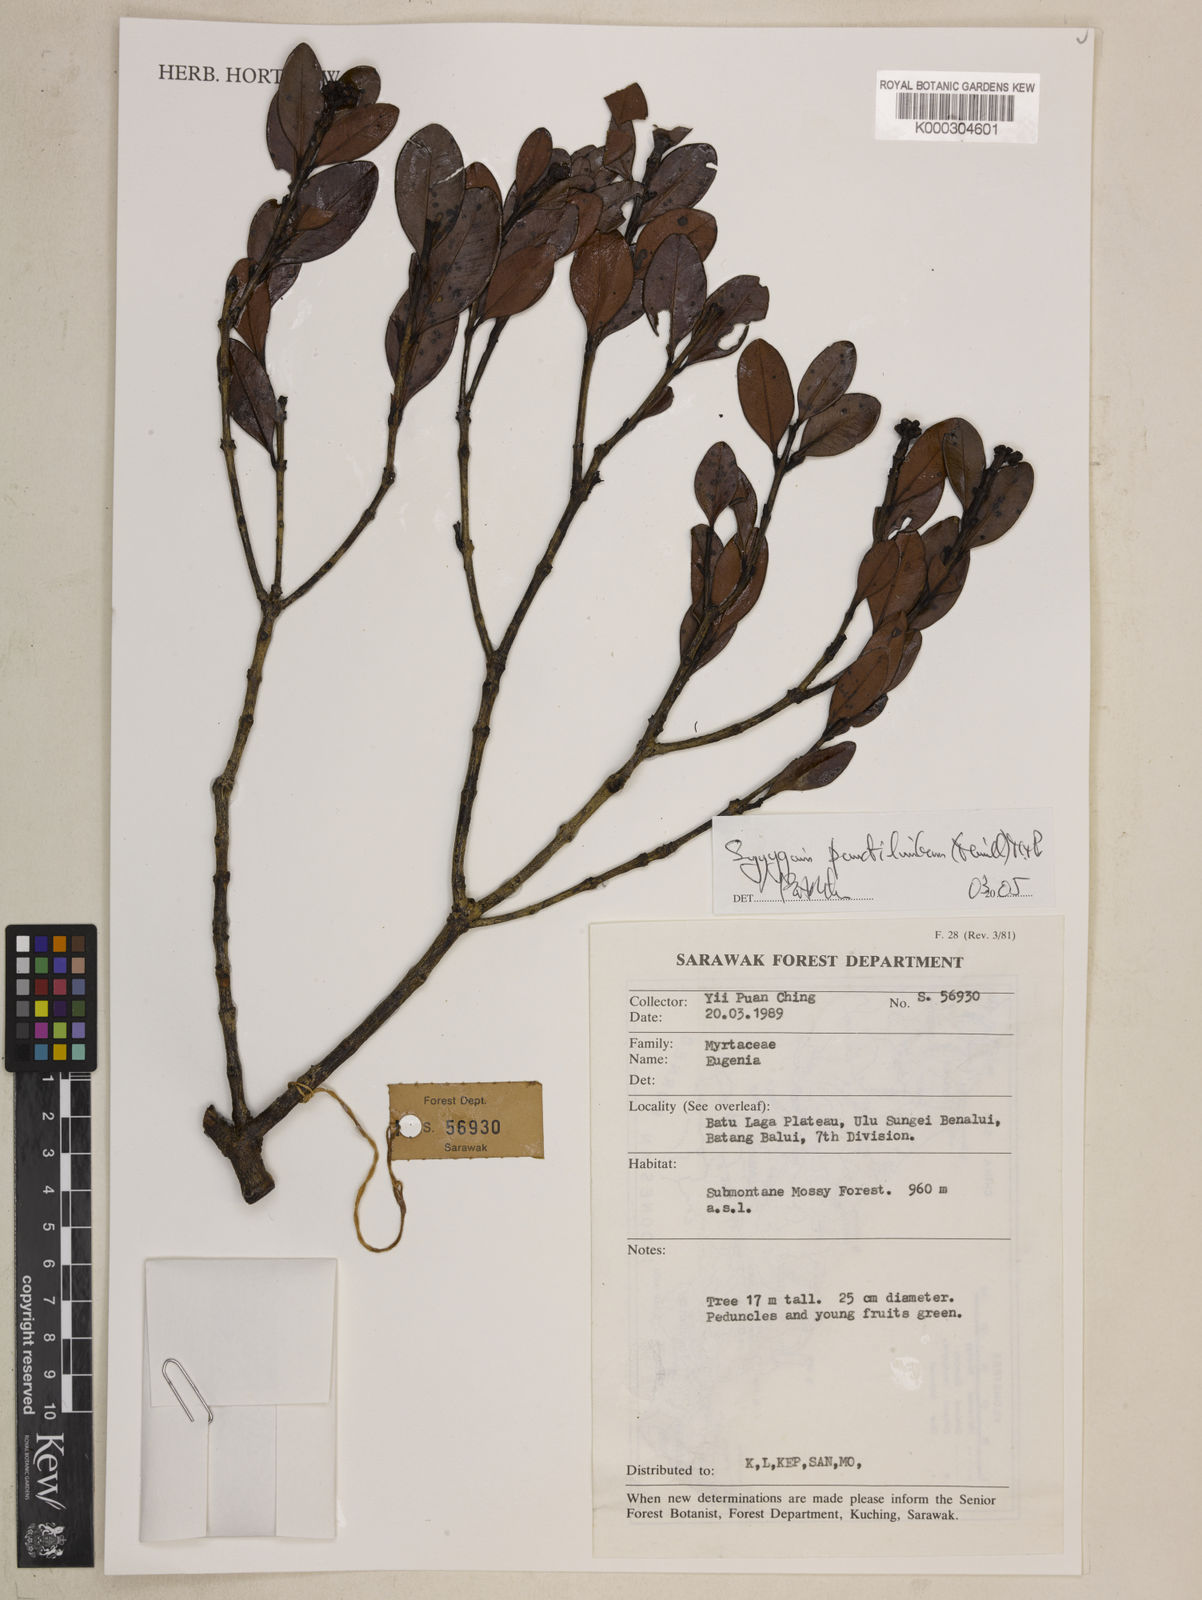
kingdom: Plantae
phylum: Tracheophyta
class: Magnoliopsida
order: Myrtales
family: Myrtaceae
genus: Syzygium
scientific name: Syzygium punctilimbum
